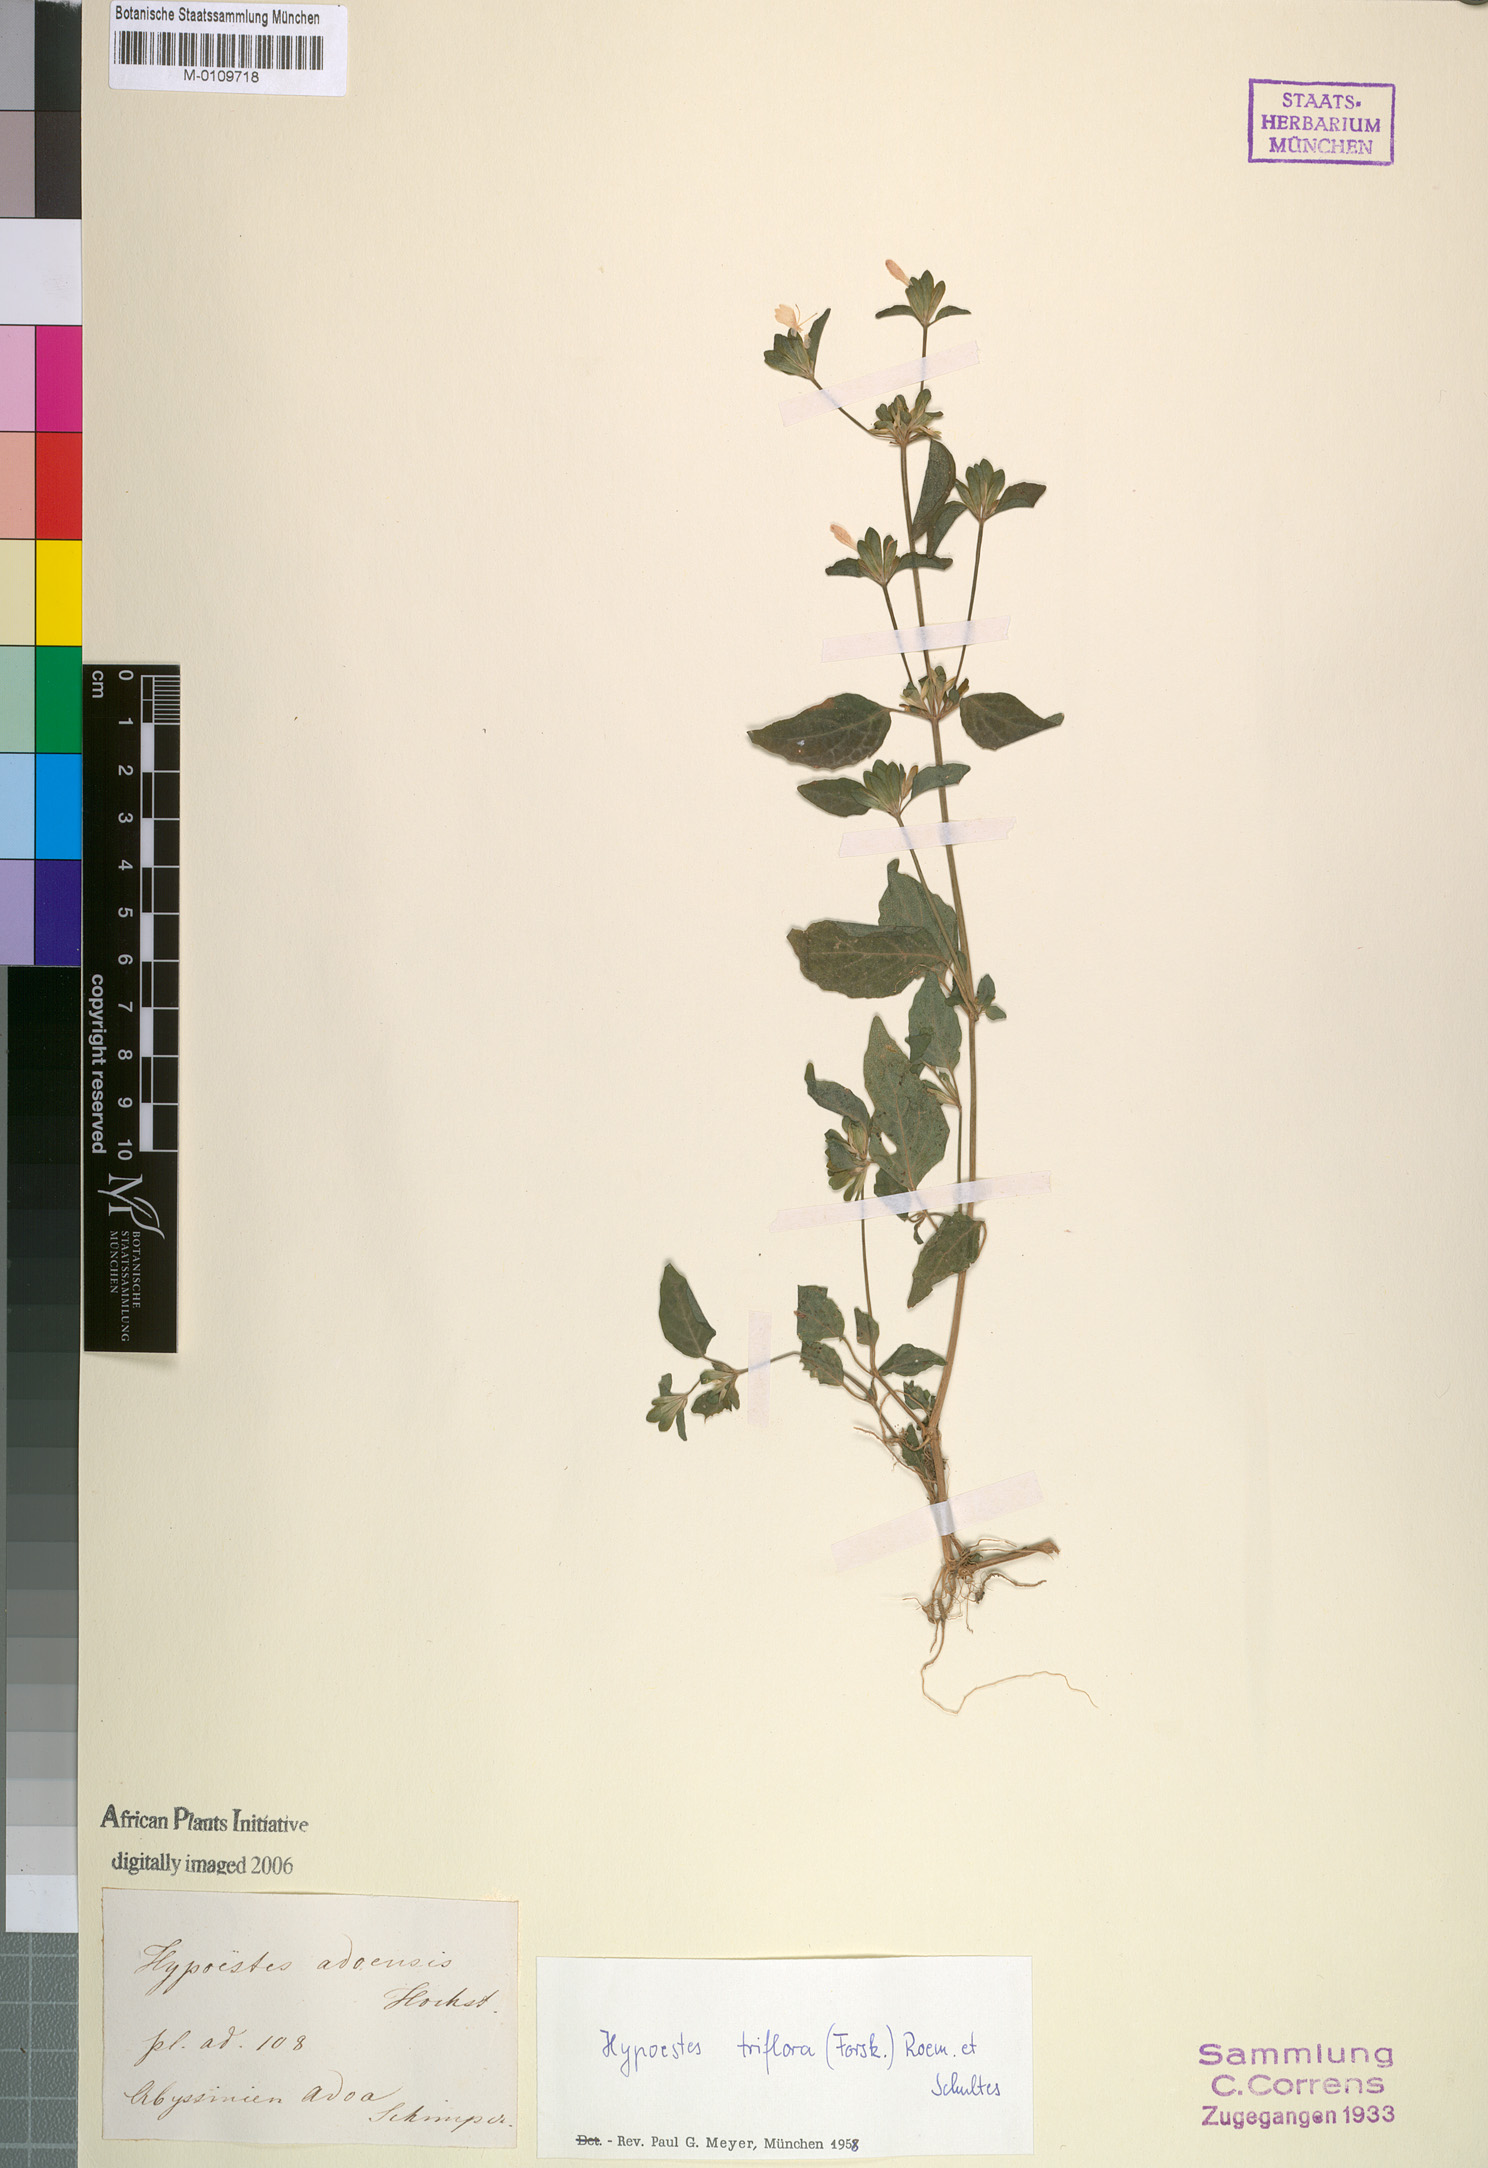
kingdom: Plantae
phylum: Tracheophyta
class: Magnoliopsida
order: Lamiales
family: Acanthaceae
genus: Hypoestes
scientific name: Hypoestes triflora
